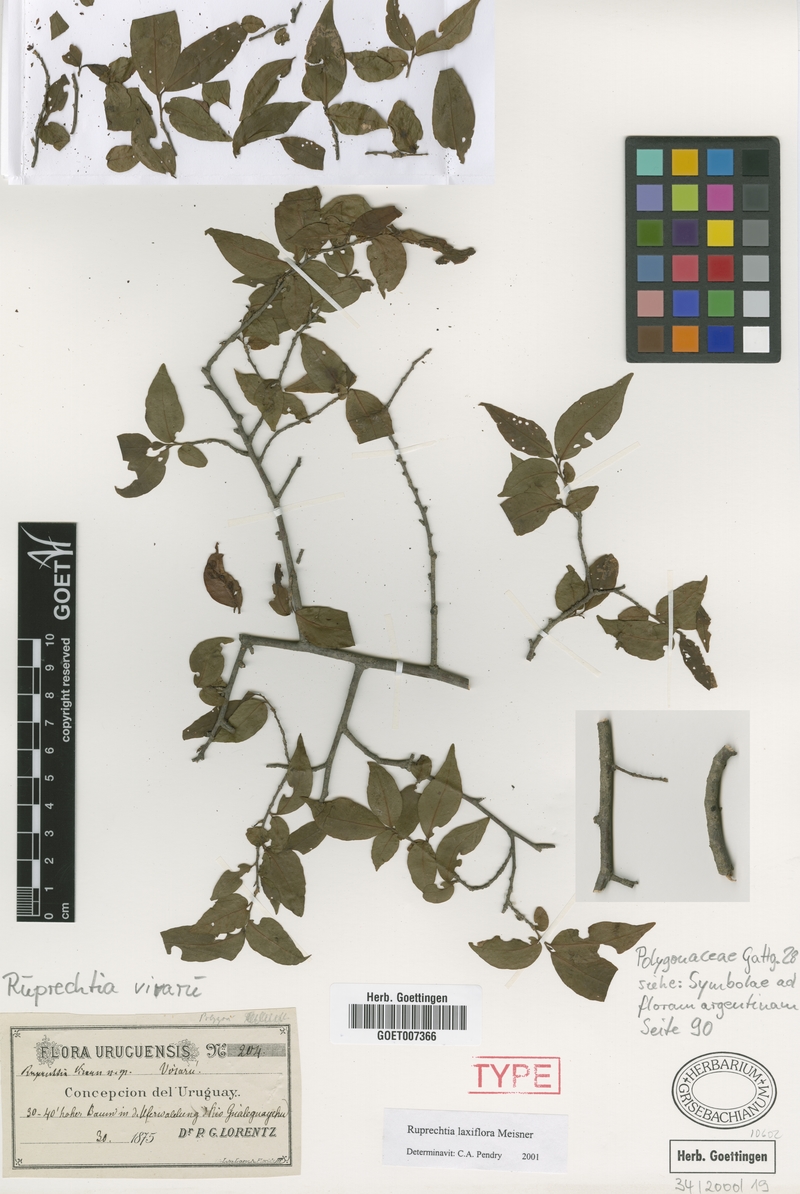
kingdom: Plantae
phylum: Tracheophyta
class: Magnoliopsida
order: Caryophyllales
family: Polygonaceae
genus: Ruprechtia
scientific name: Ruprechtia laxiflora
